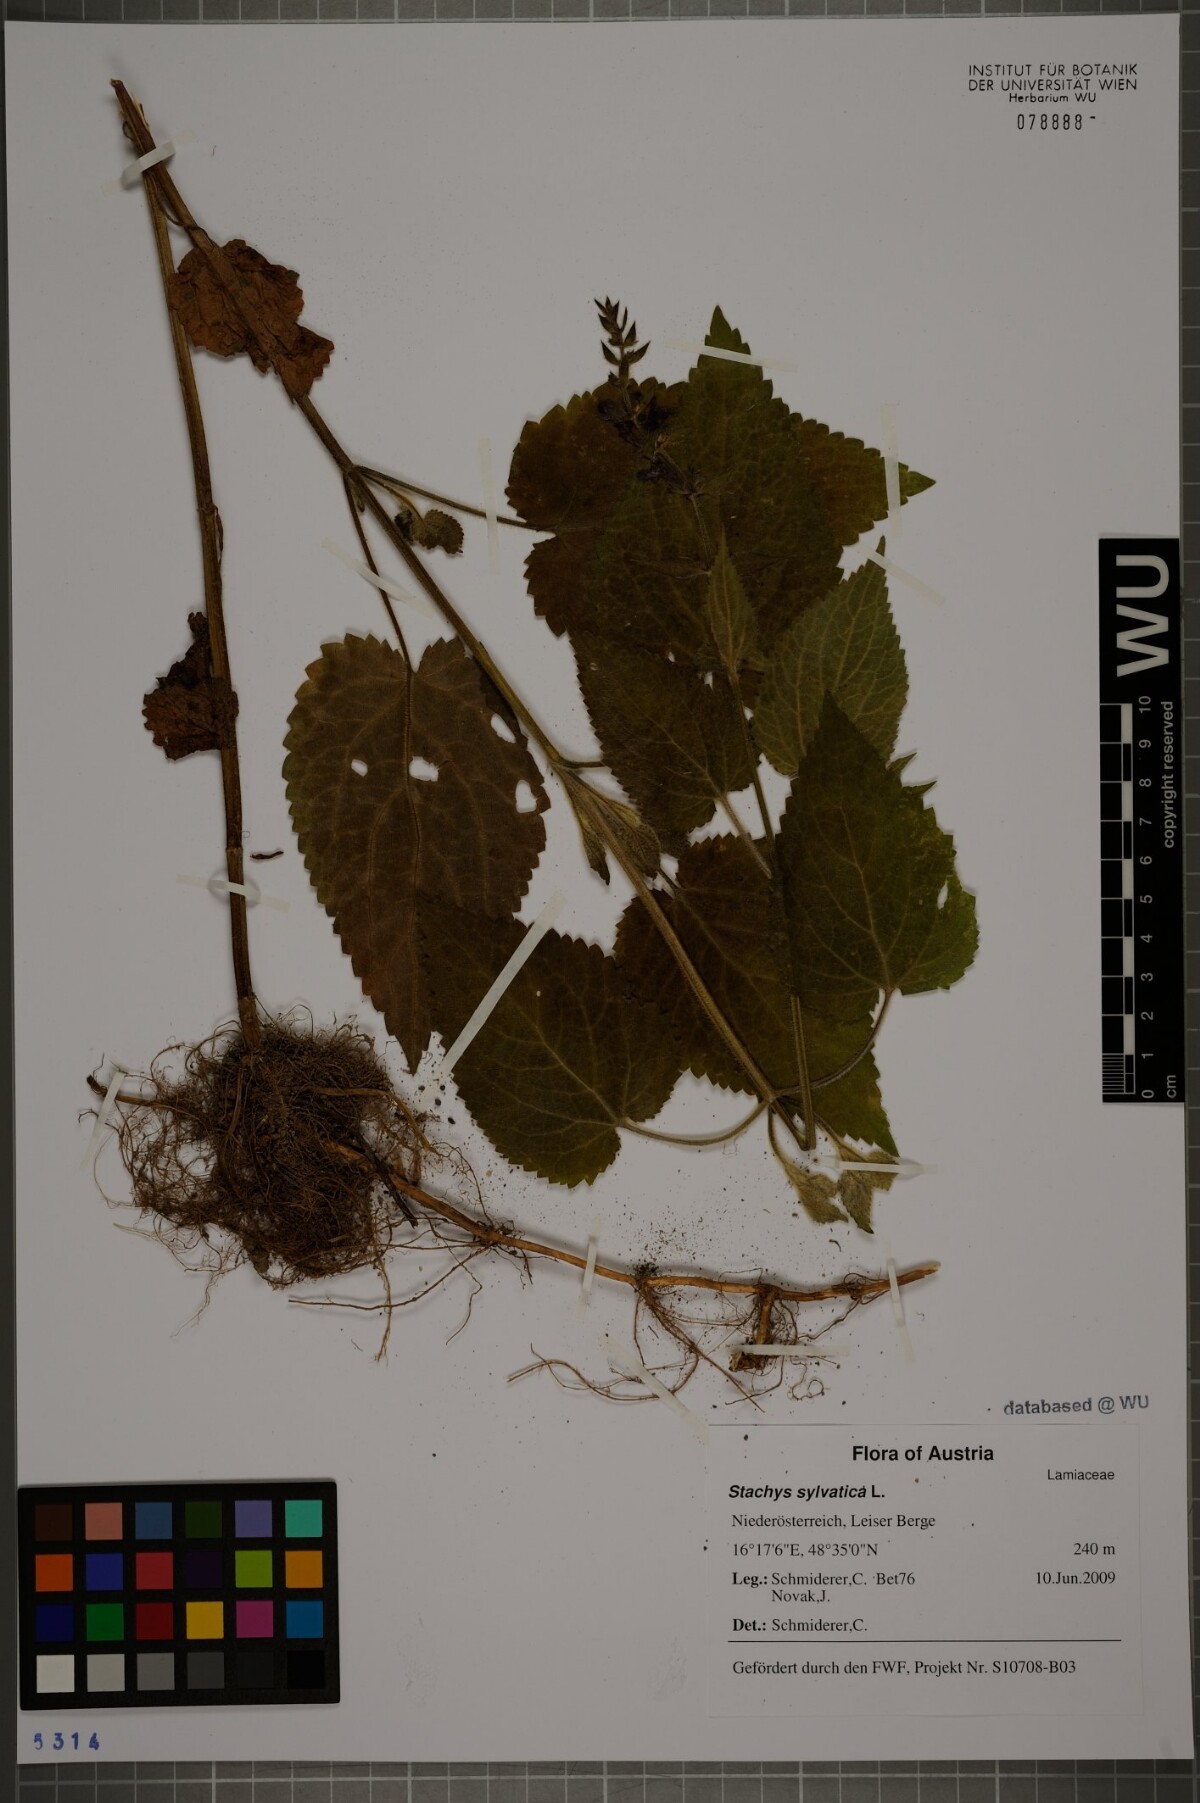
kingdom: Plantae
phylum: Tracheophyta
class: Magnoliopsida
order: Lamiales
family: Lamiaceae
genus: Stachys
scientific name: Stachys sylvatica
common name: Hedge woundwort
